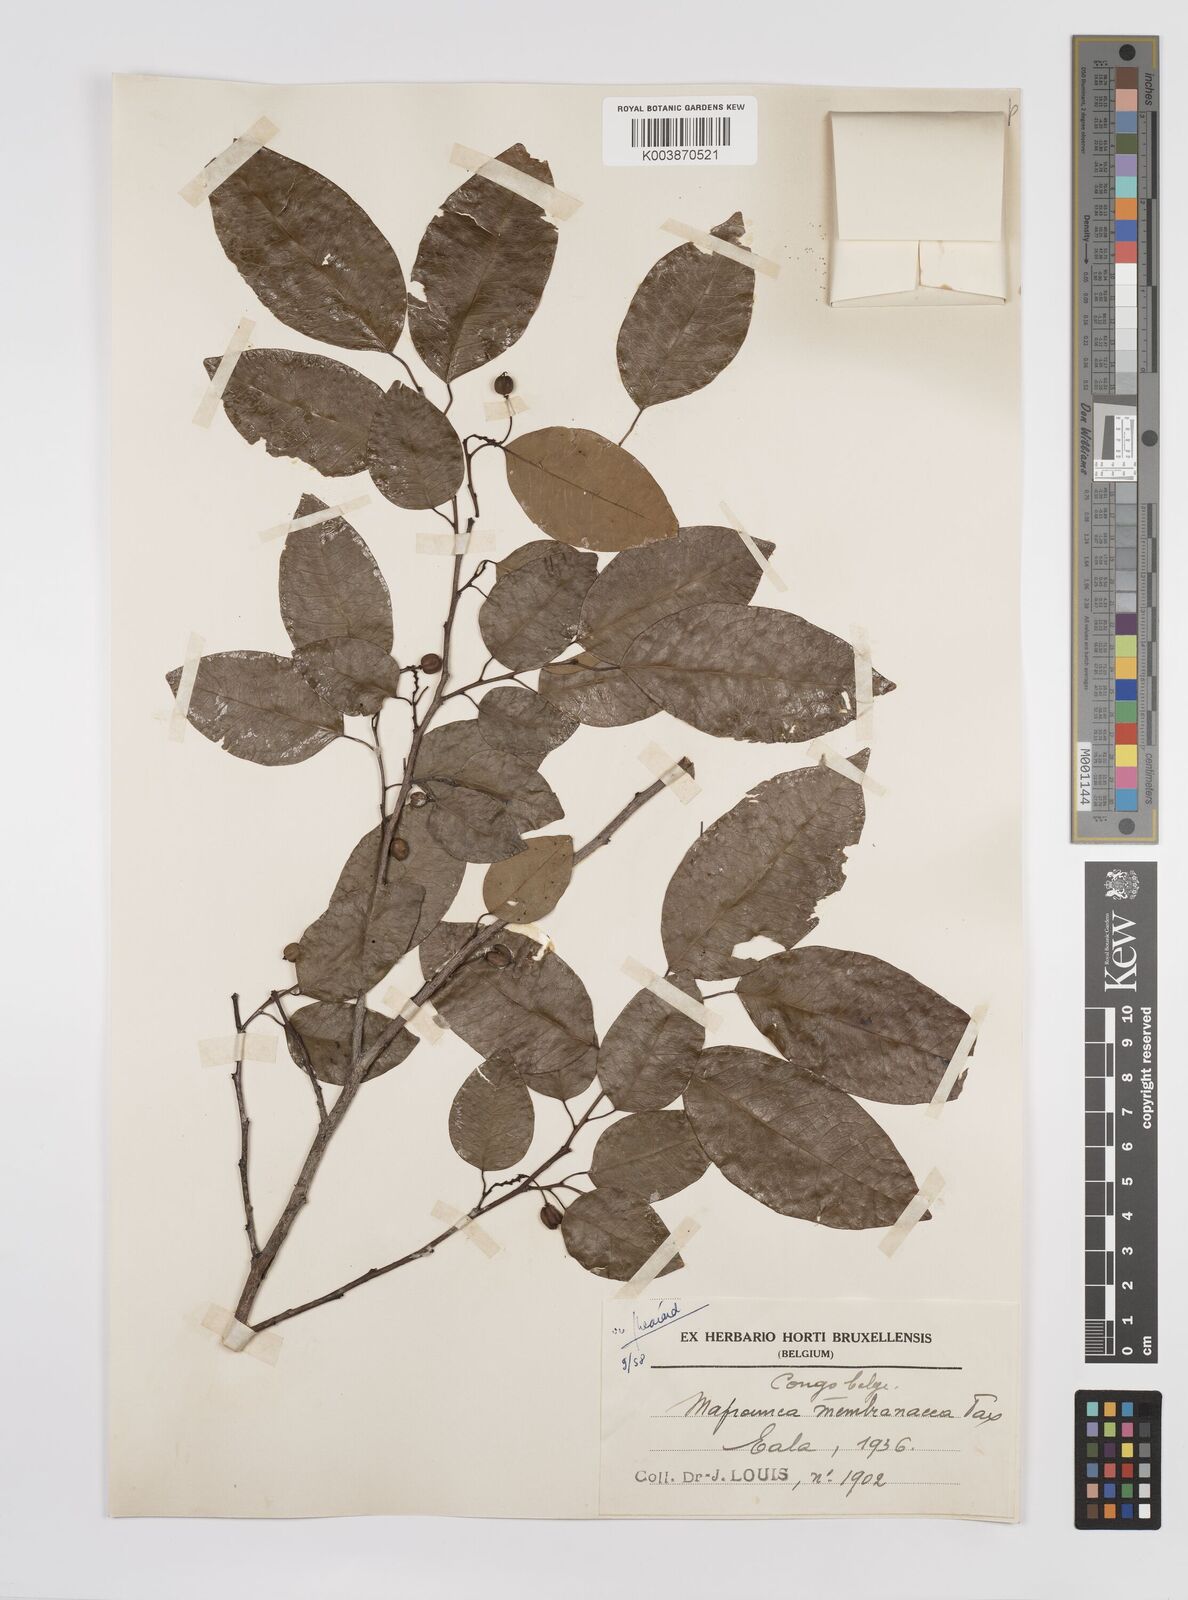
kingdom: Plantae
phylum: Tracheophyta
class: Magnoliopsida
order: Malpighiales
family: Euphorbiaceae
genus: Maprounea
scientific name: Maprounea membranacea
